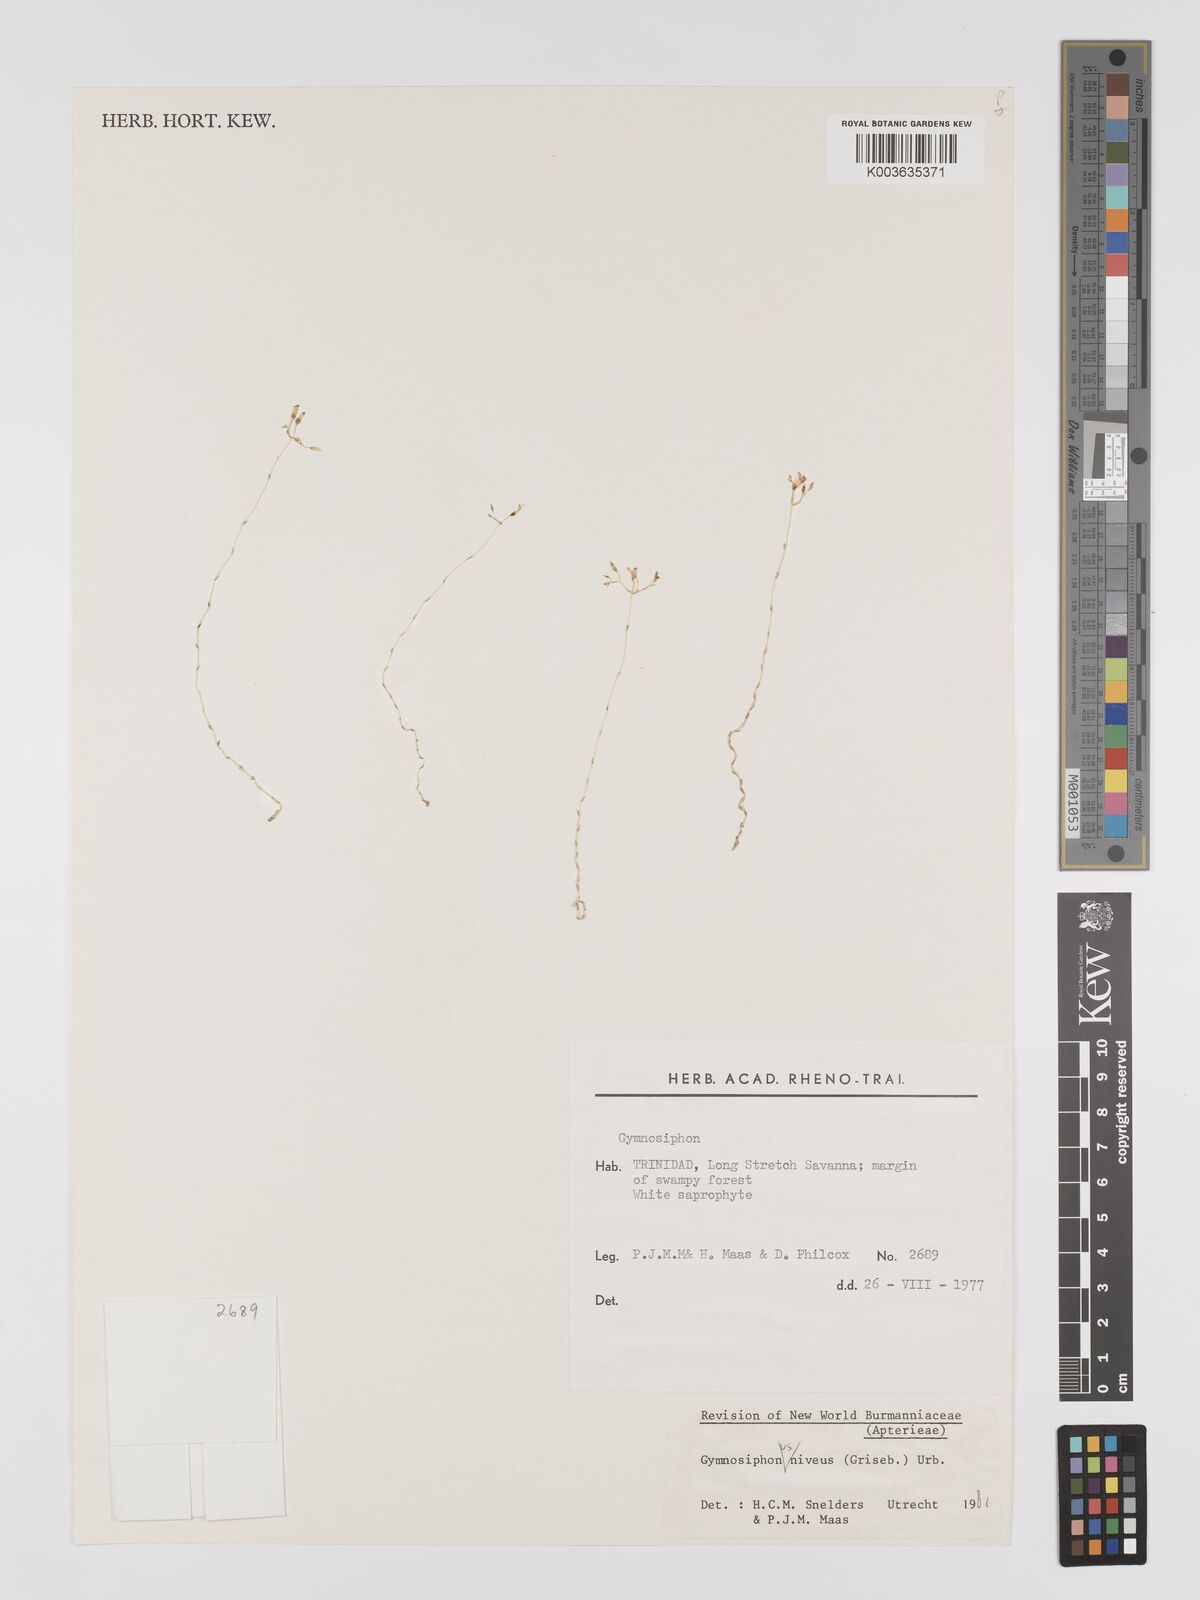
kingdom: Plantae
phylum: Tracheophyta
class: Liliopsida
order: Dioscoreales
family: Burmanniaceae
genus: Gymnosiphon
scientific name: Gymnosiphon niveus
